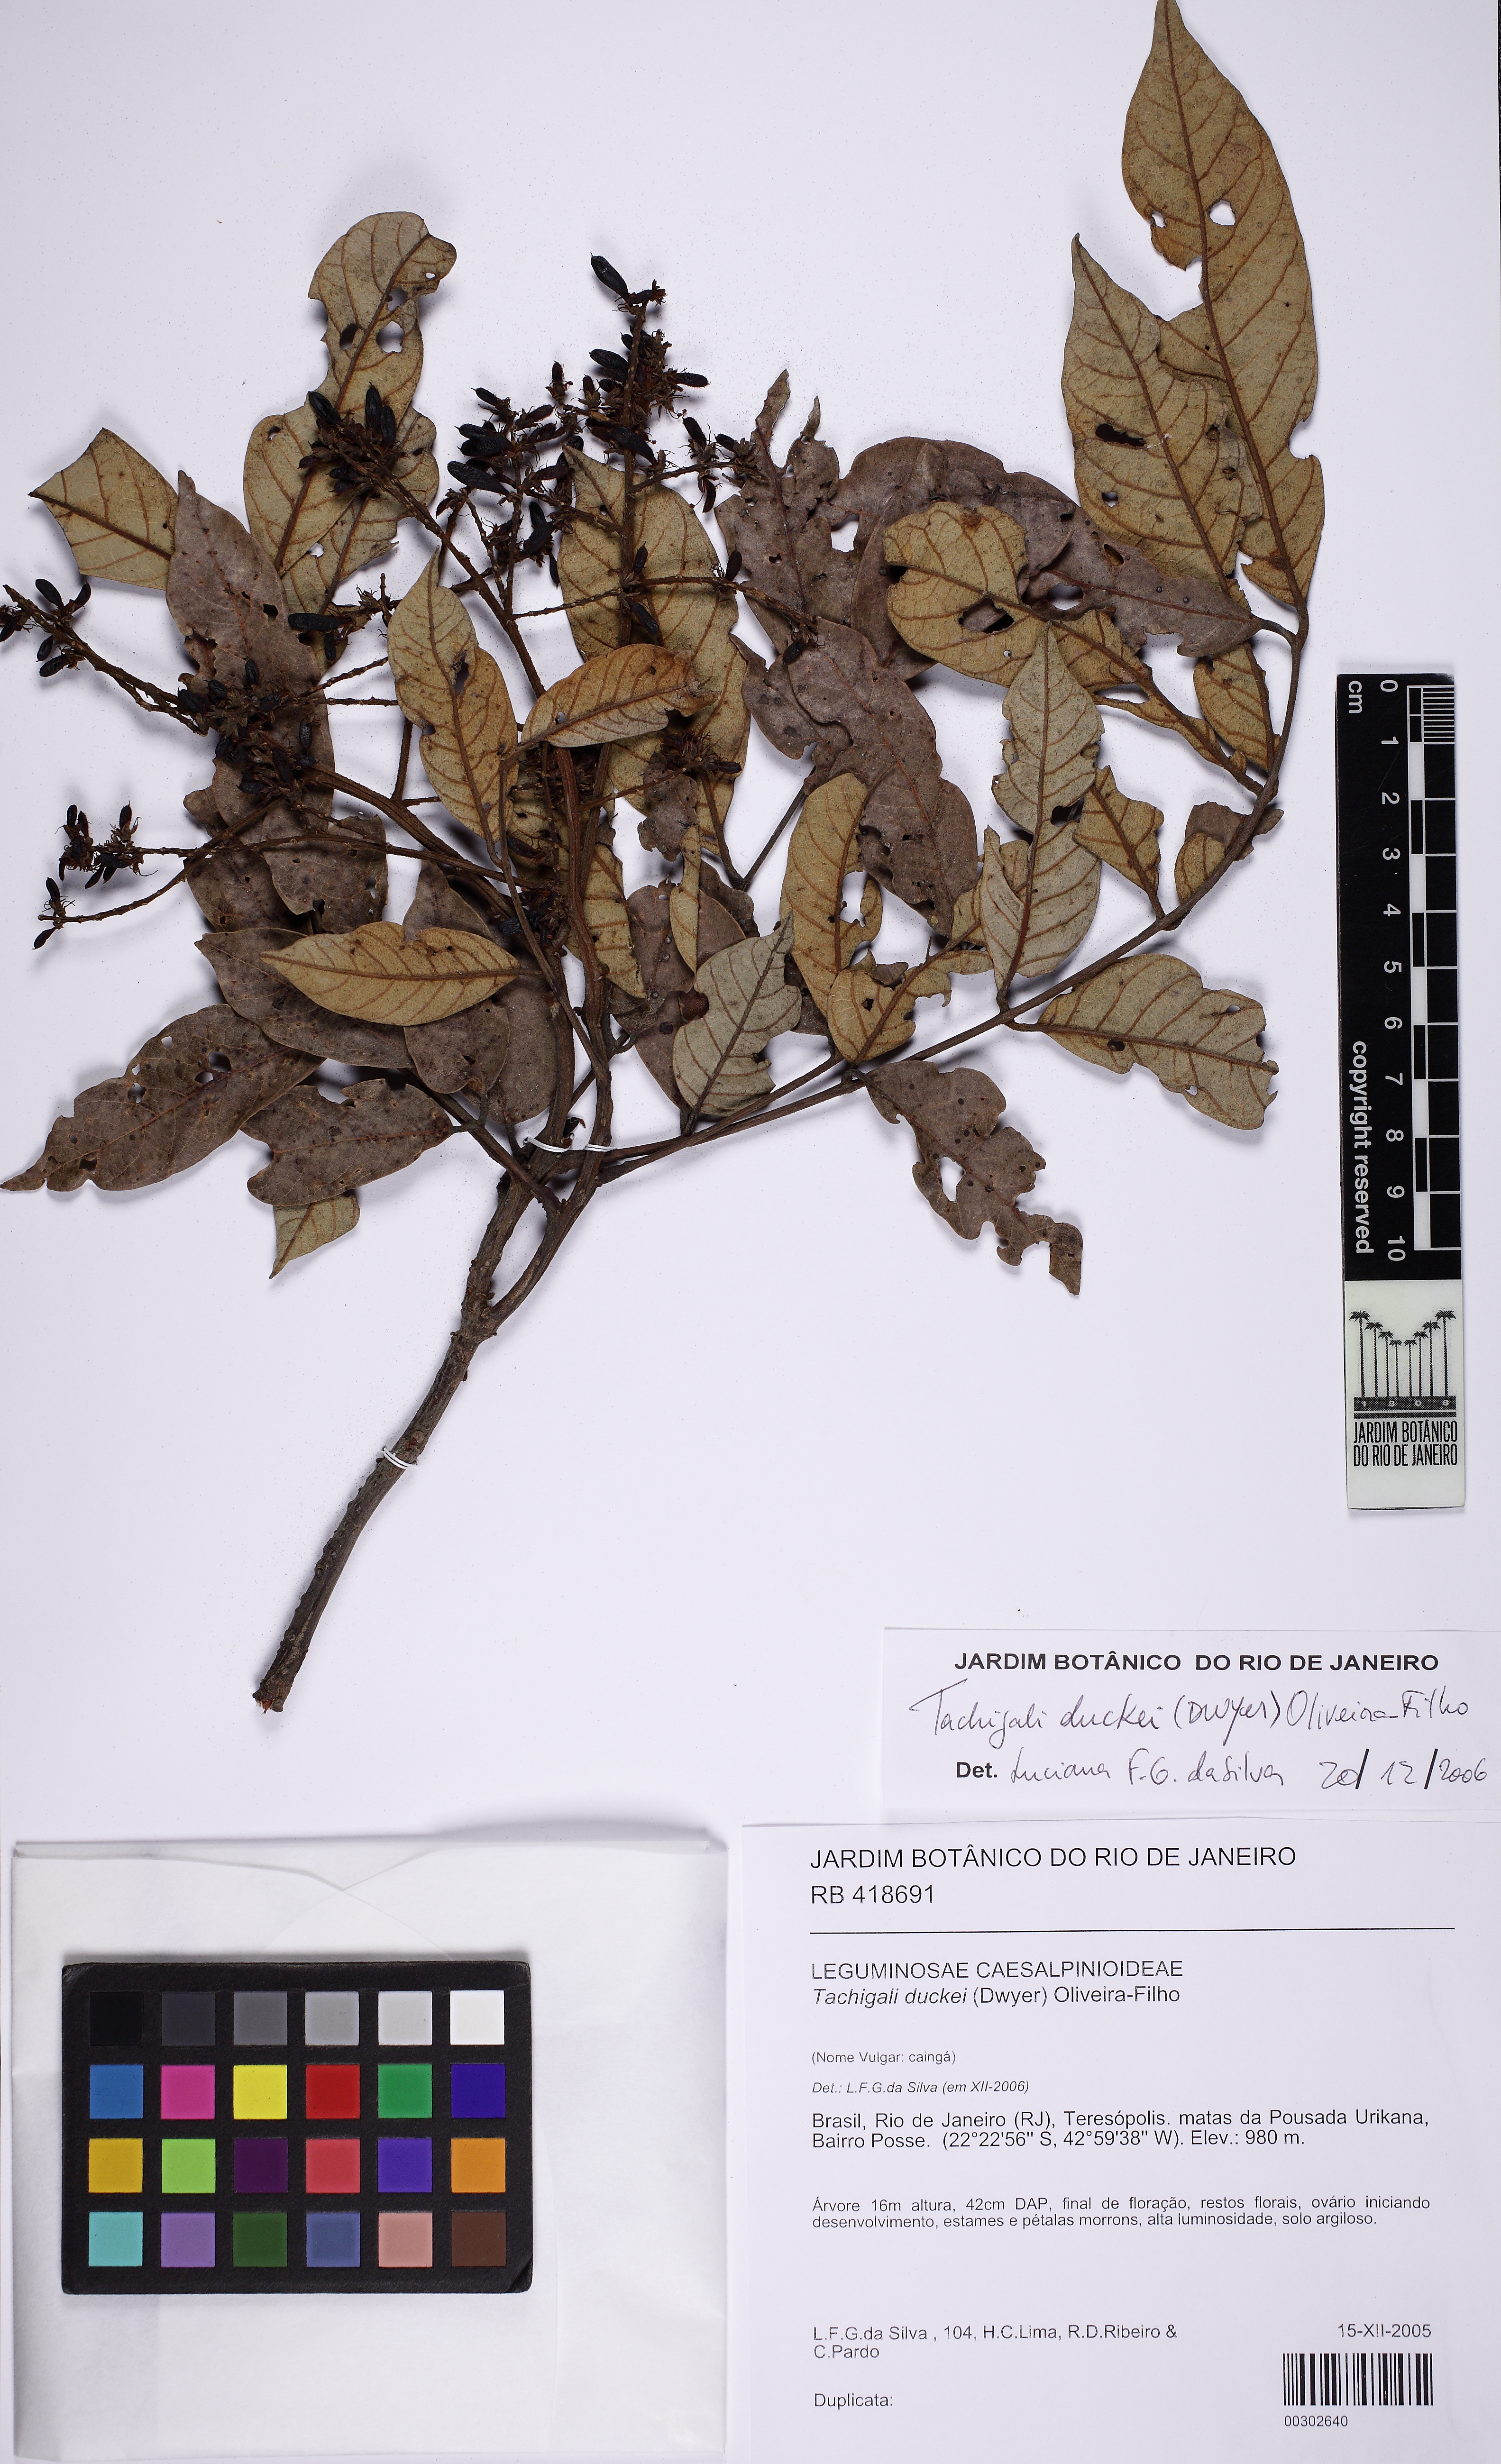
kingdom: Plantae
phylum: Tracheophyta
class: Magnoliopsida
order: Fabales
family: Fabaceae
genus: Tachigali
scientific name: Tachigali duckei
